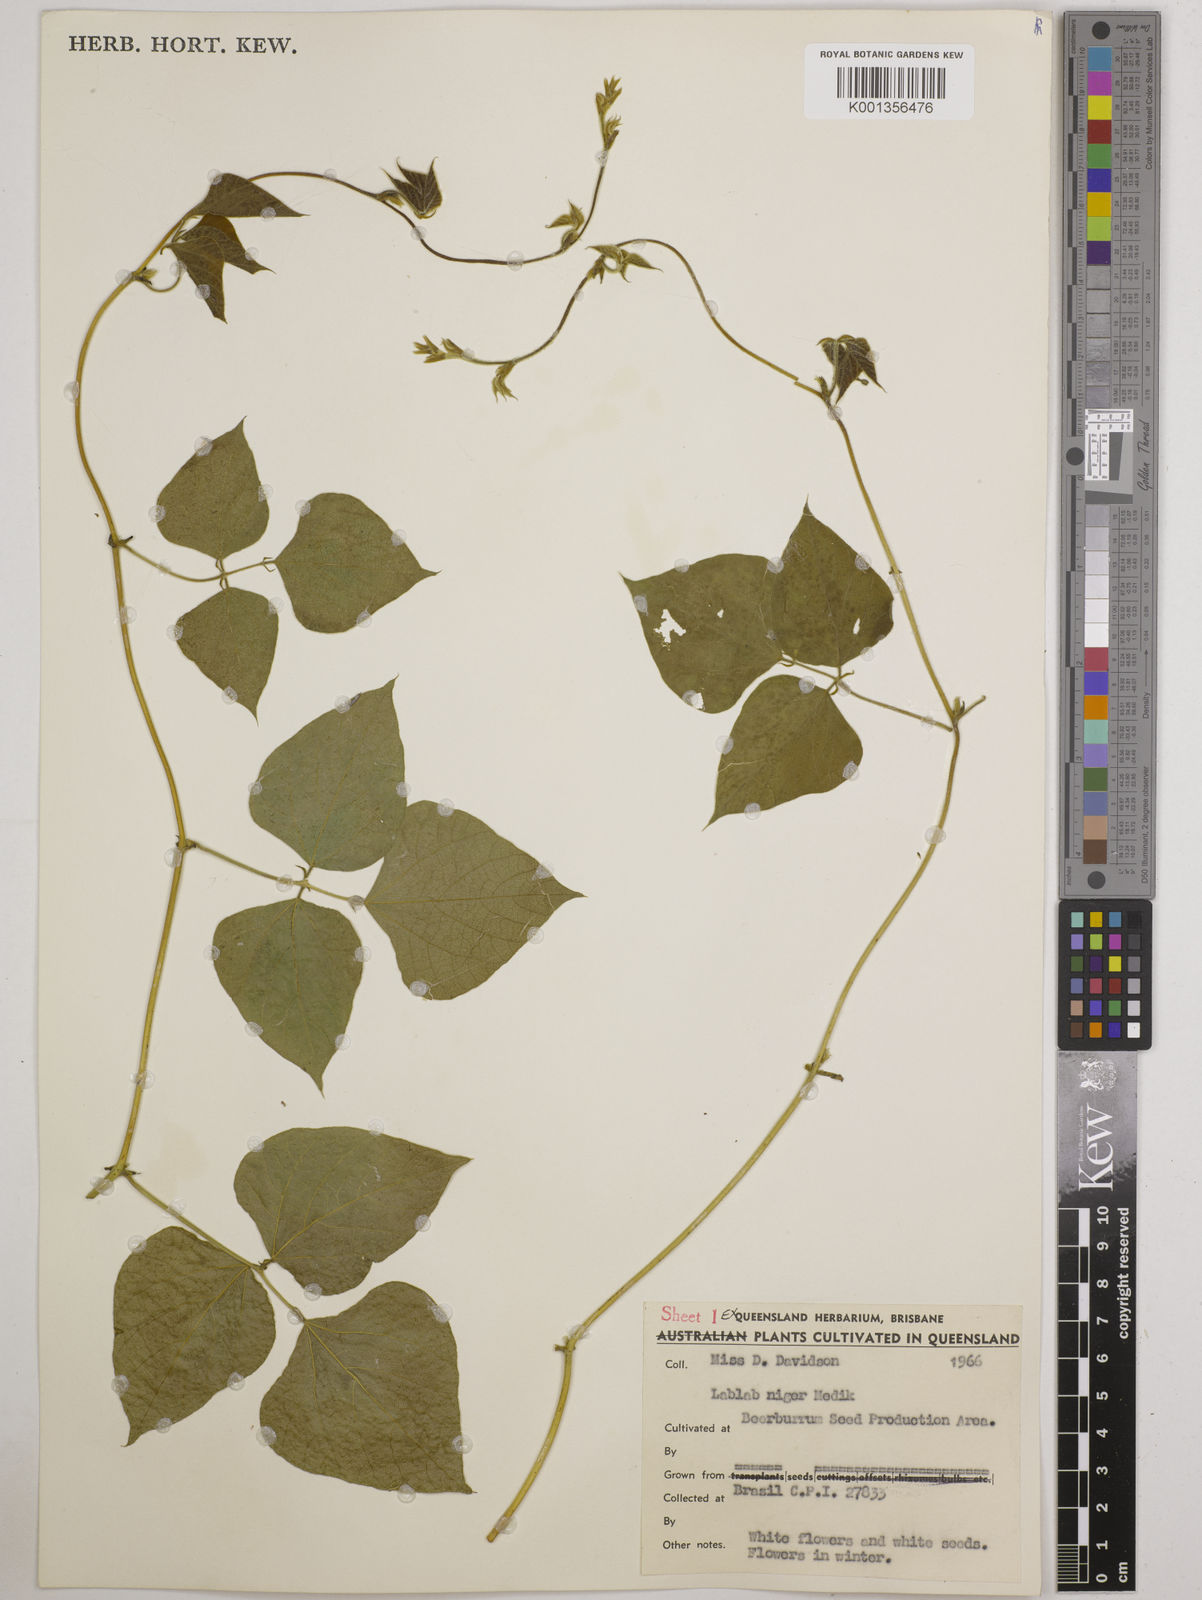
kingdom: Plantae
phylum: Tracheophyta
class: Magnoliopsida
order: Fabales
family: Fabaceae
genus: Lablab
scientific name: Lablab purpureus
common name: Lablab-bean
